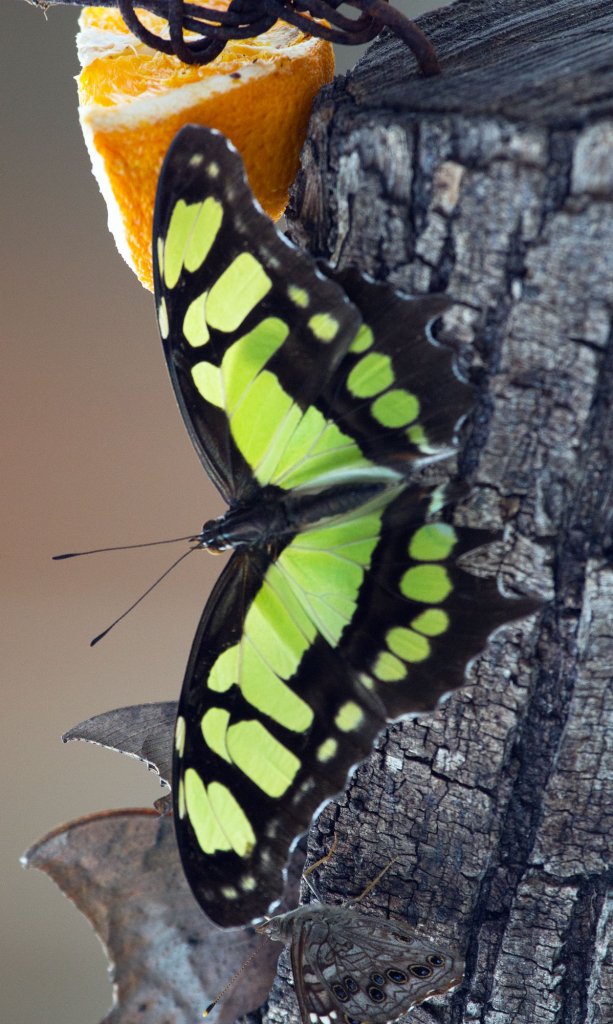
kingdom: Animalia
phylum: Arthropoda
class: Insecta
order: Lepidoptera
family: Nymphalidae
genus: Siproeta
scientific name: Siproeta stelenes
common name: Malachite
